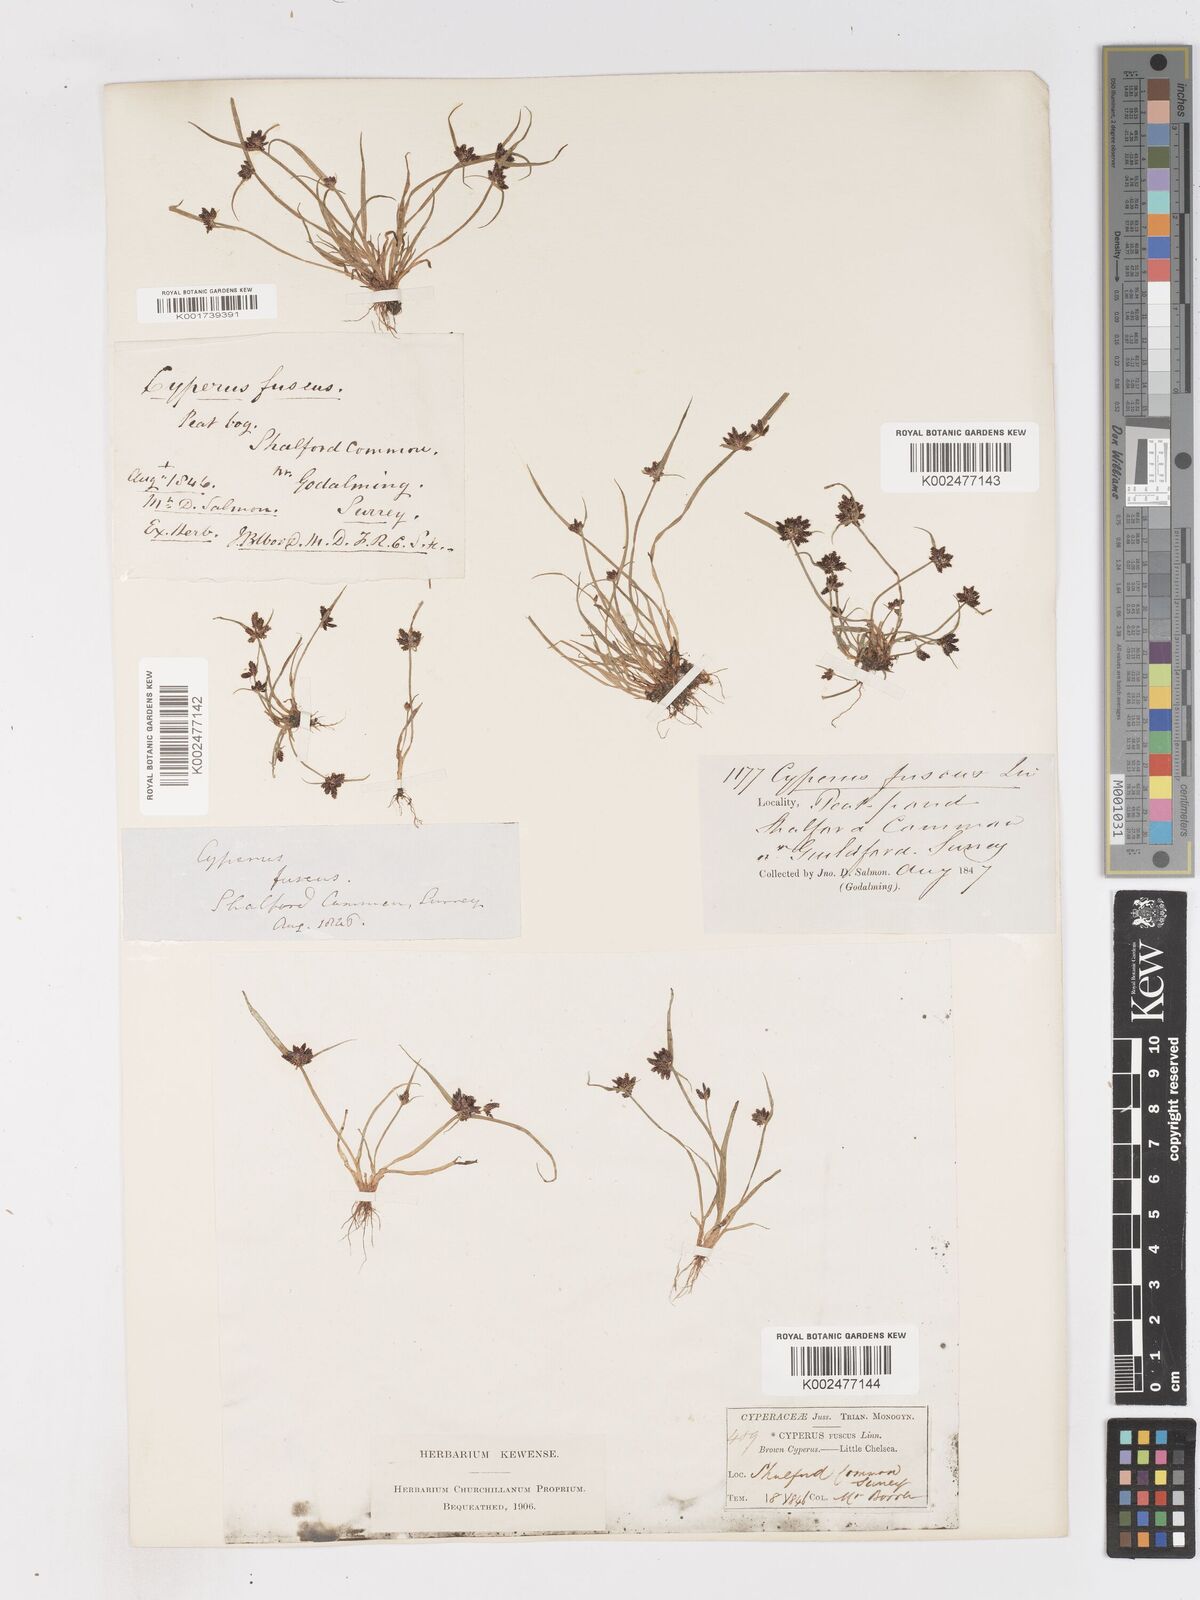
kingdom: Plantae
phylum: Tracheophyta
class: Liliopsida
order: Poales
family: Cyperaceae
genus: Cyperus
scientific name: Cyperus fuscus
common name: Brown galingale
